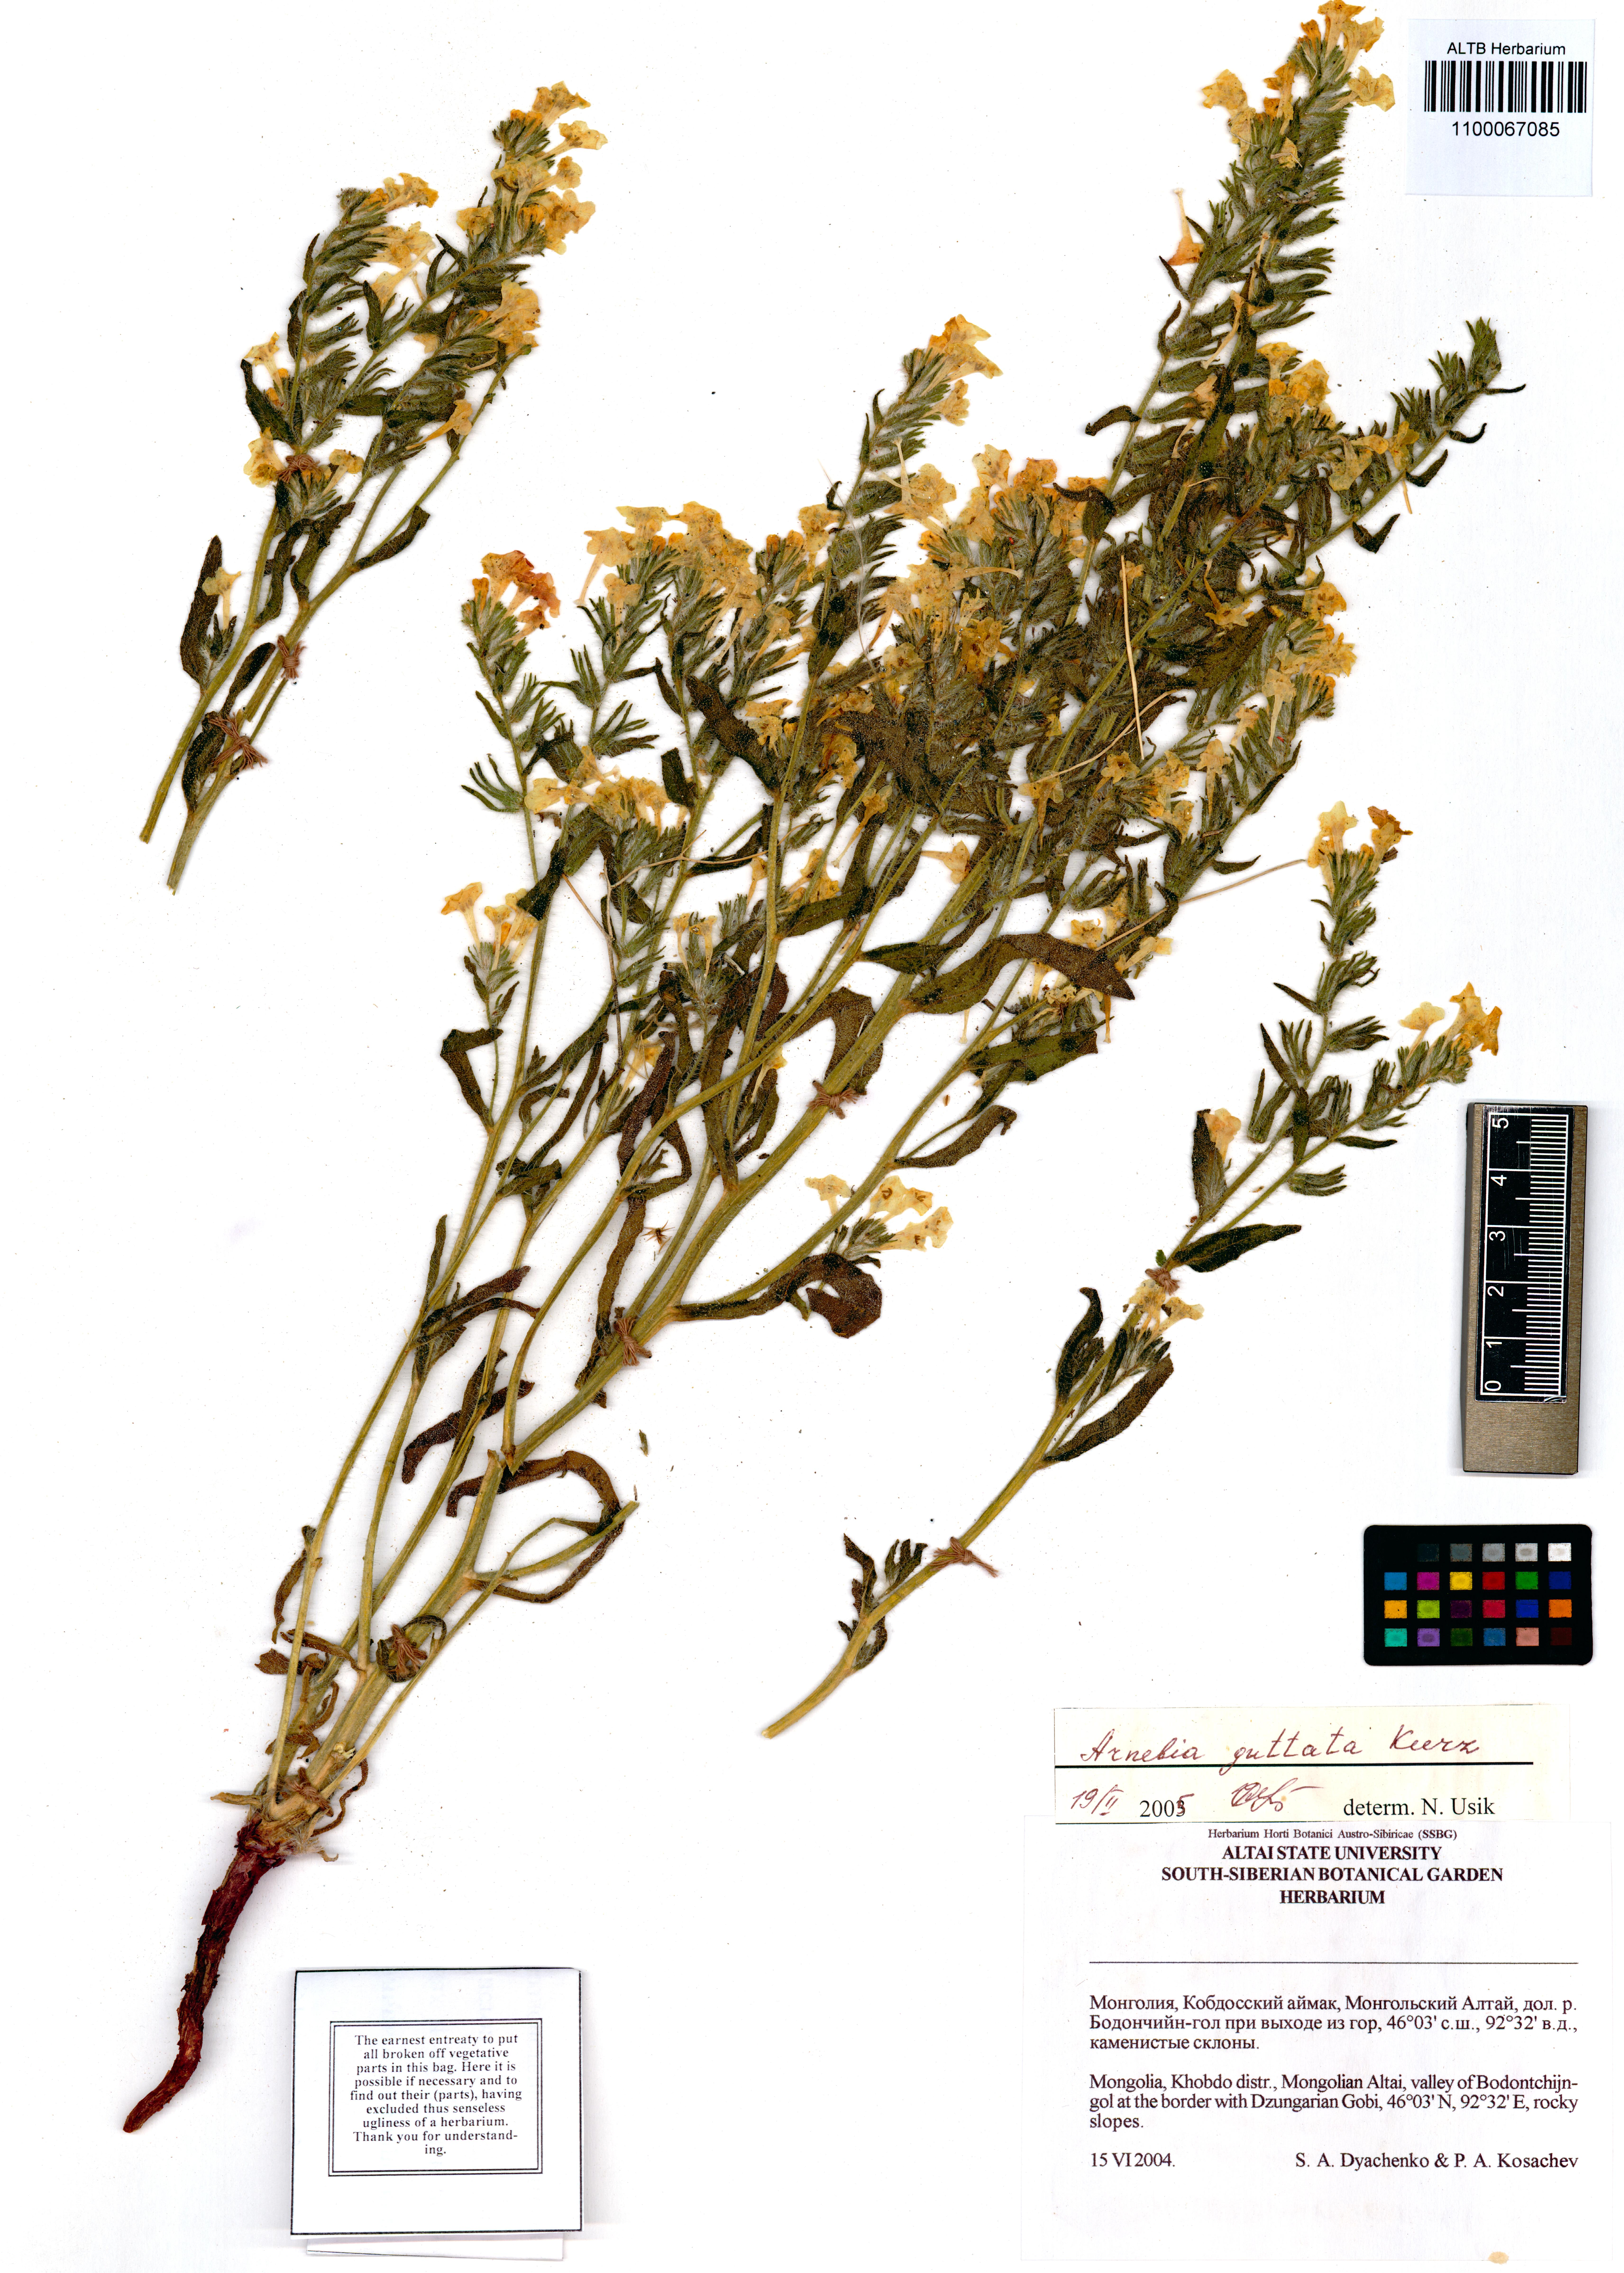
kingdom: Plantae
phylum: Tracheophyta
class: Magnoliopsida
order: Boraginales
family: Boraginaceae
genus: Arnebia
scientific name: Arnebia guttata
